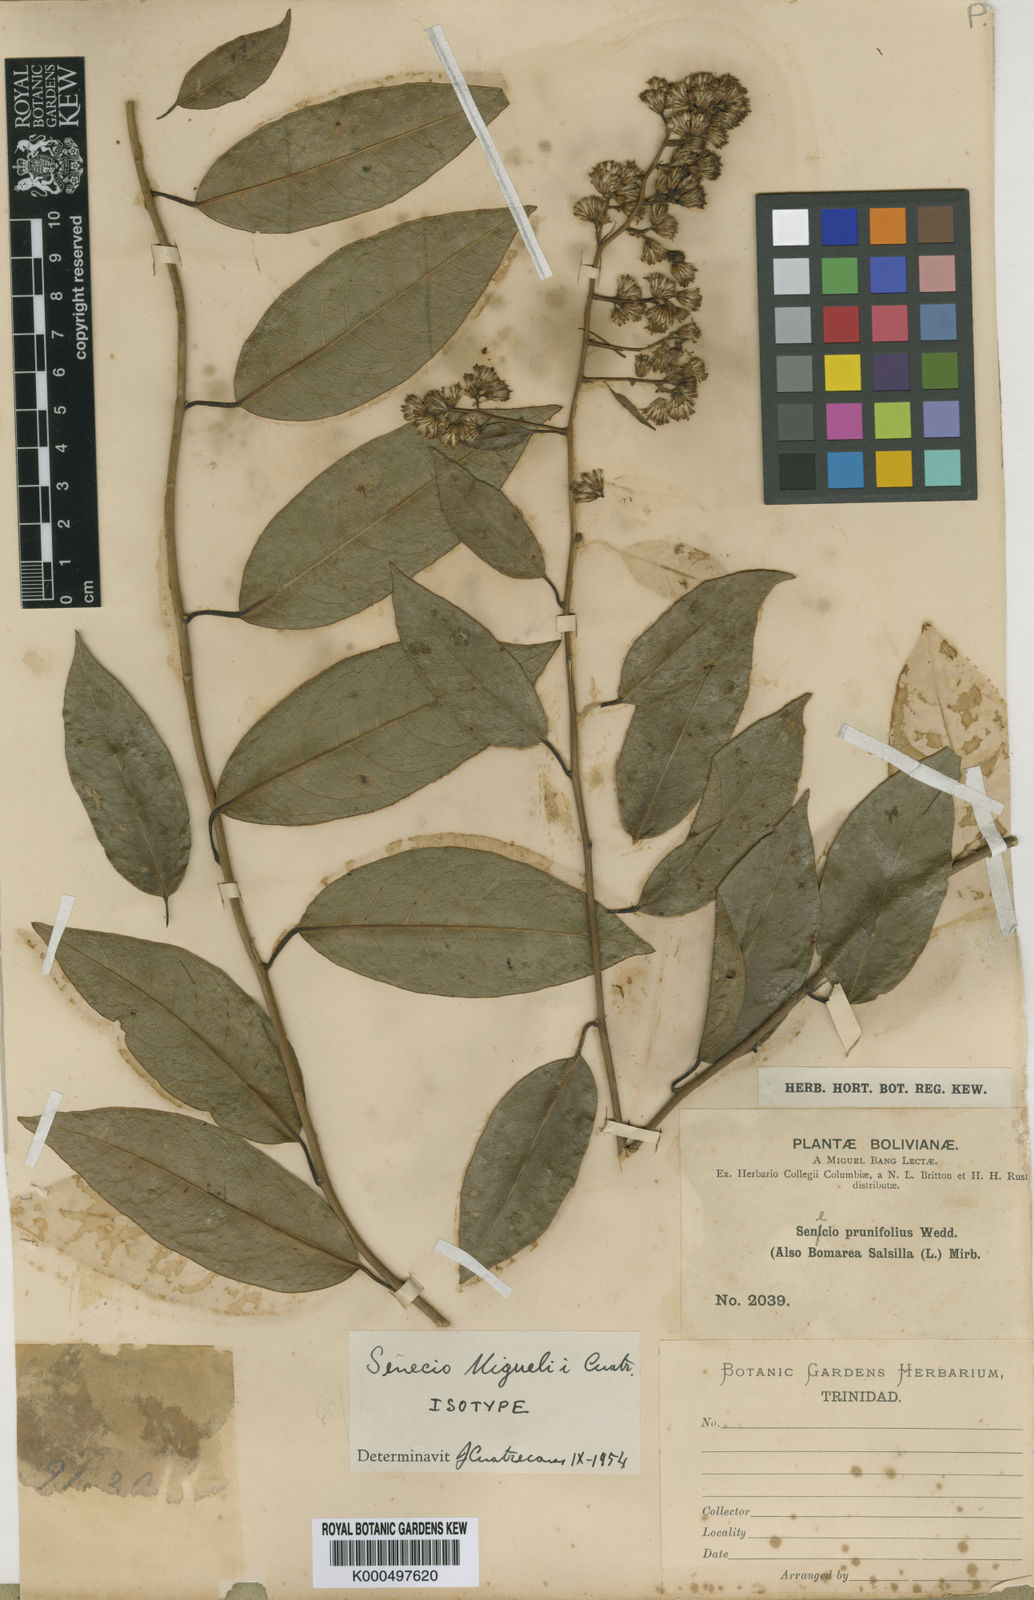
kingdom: Plantae
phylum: Tracheophyta
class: Magnoliopsida
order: Asterales
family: Asteraceae
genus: Pentacalia
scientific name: Pentacalia psidiifolia
